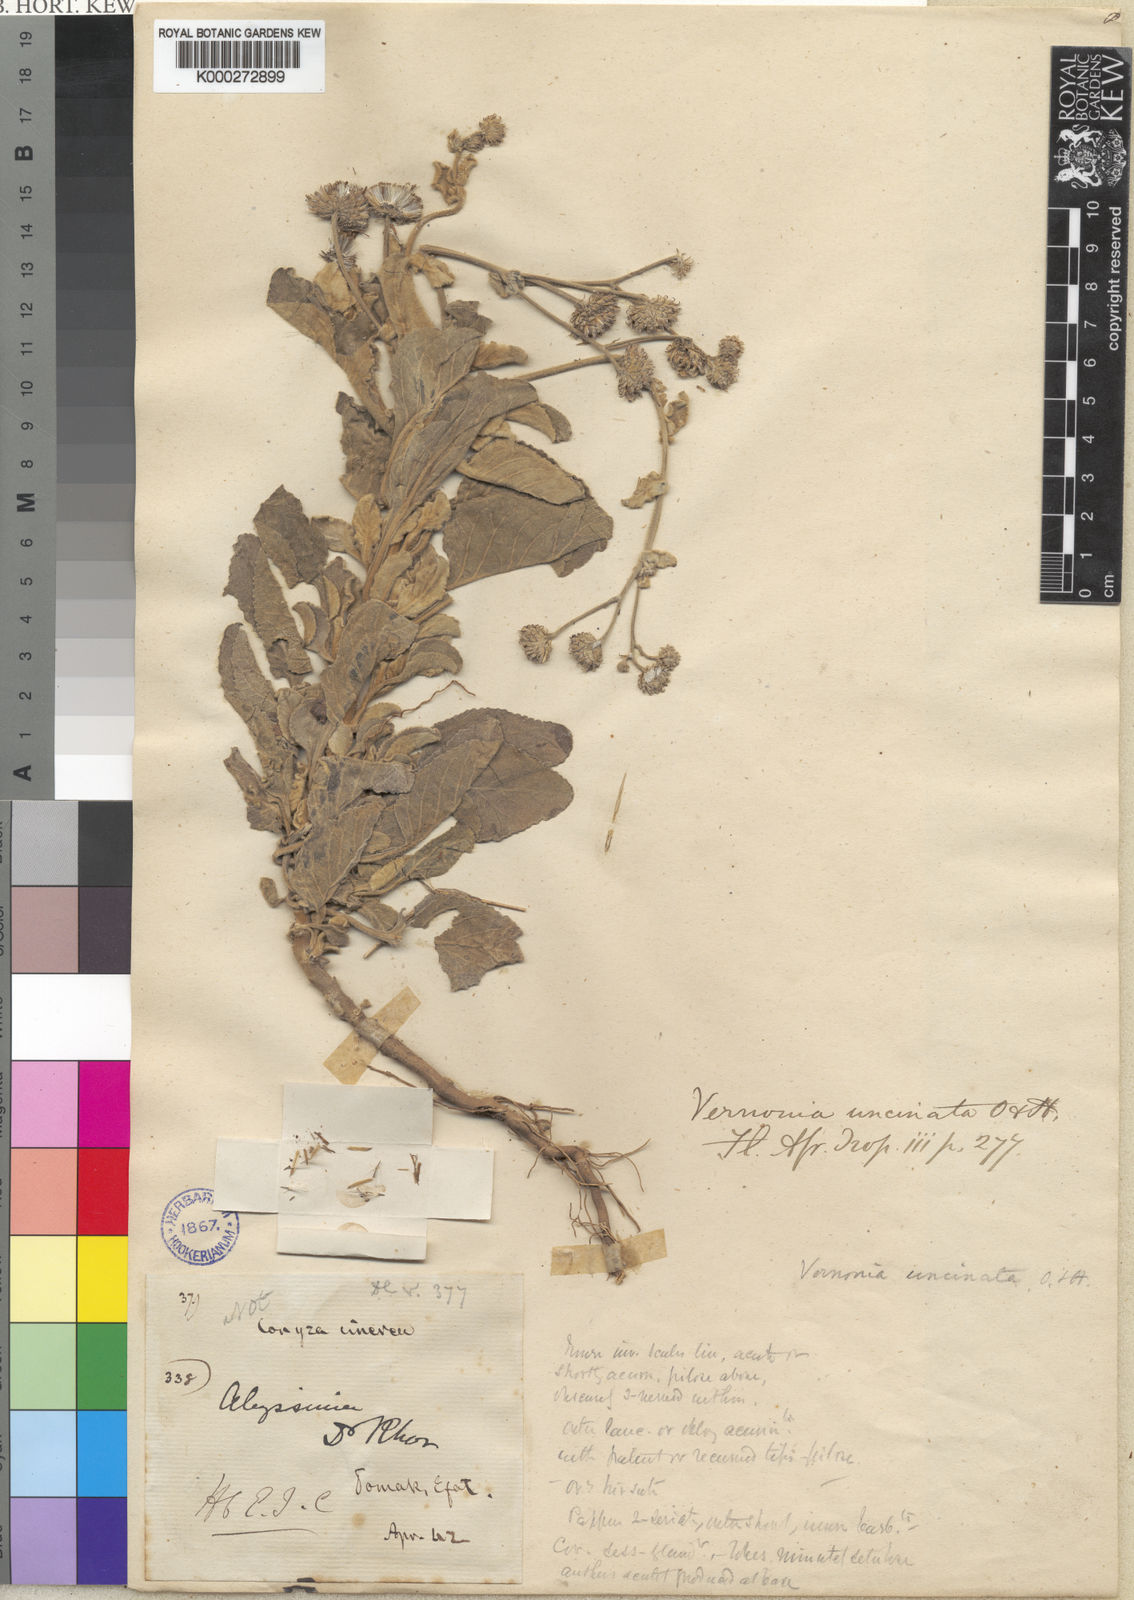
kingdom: Plantae
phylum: Tracheophyta
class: Magnoliopsida
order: Asterales
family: Asteraceae
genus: Vernoniastrum
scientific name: Vernoniastrum uncinatum
